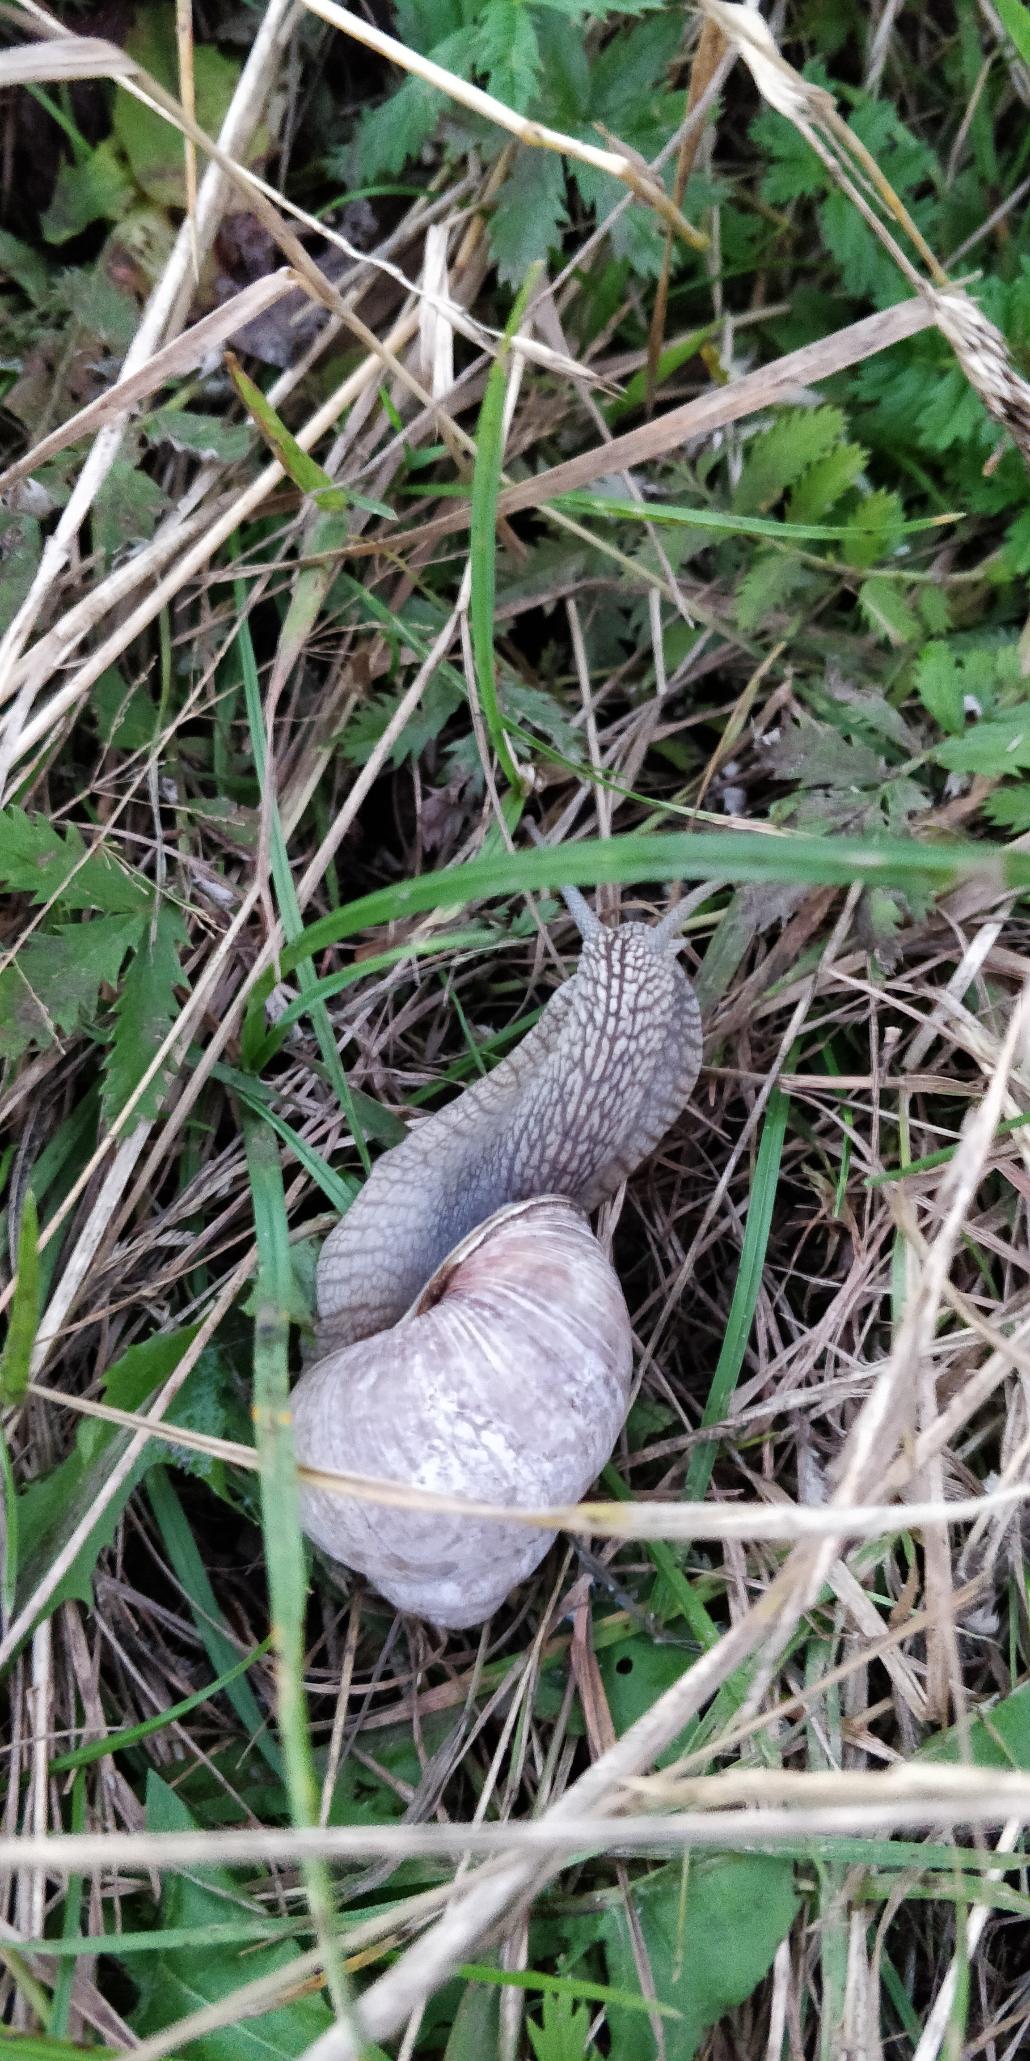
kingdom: Animalia
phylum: Mollusca
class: Gastropoda
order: Stylommatophora
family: Helicidae
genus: Helix
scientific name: Helix pomatia
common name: Vinbjergsnegl
